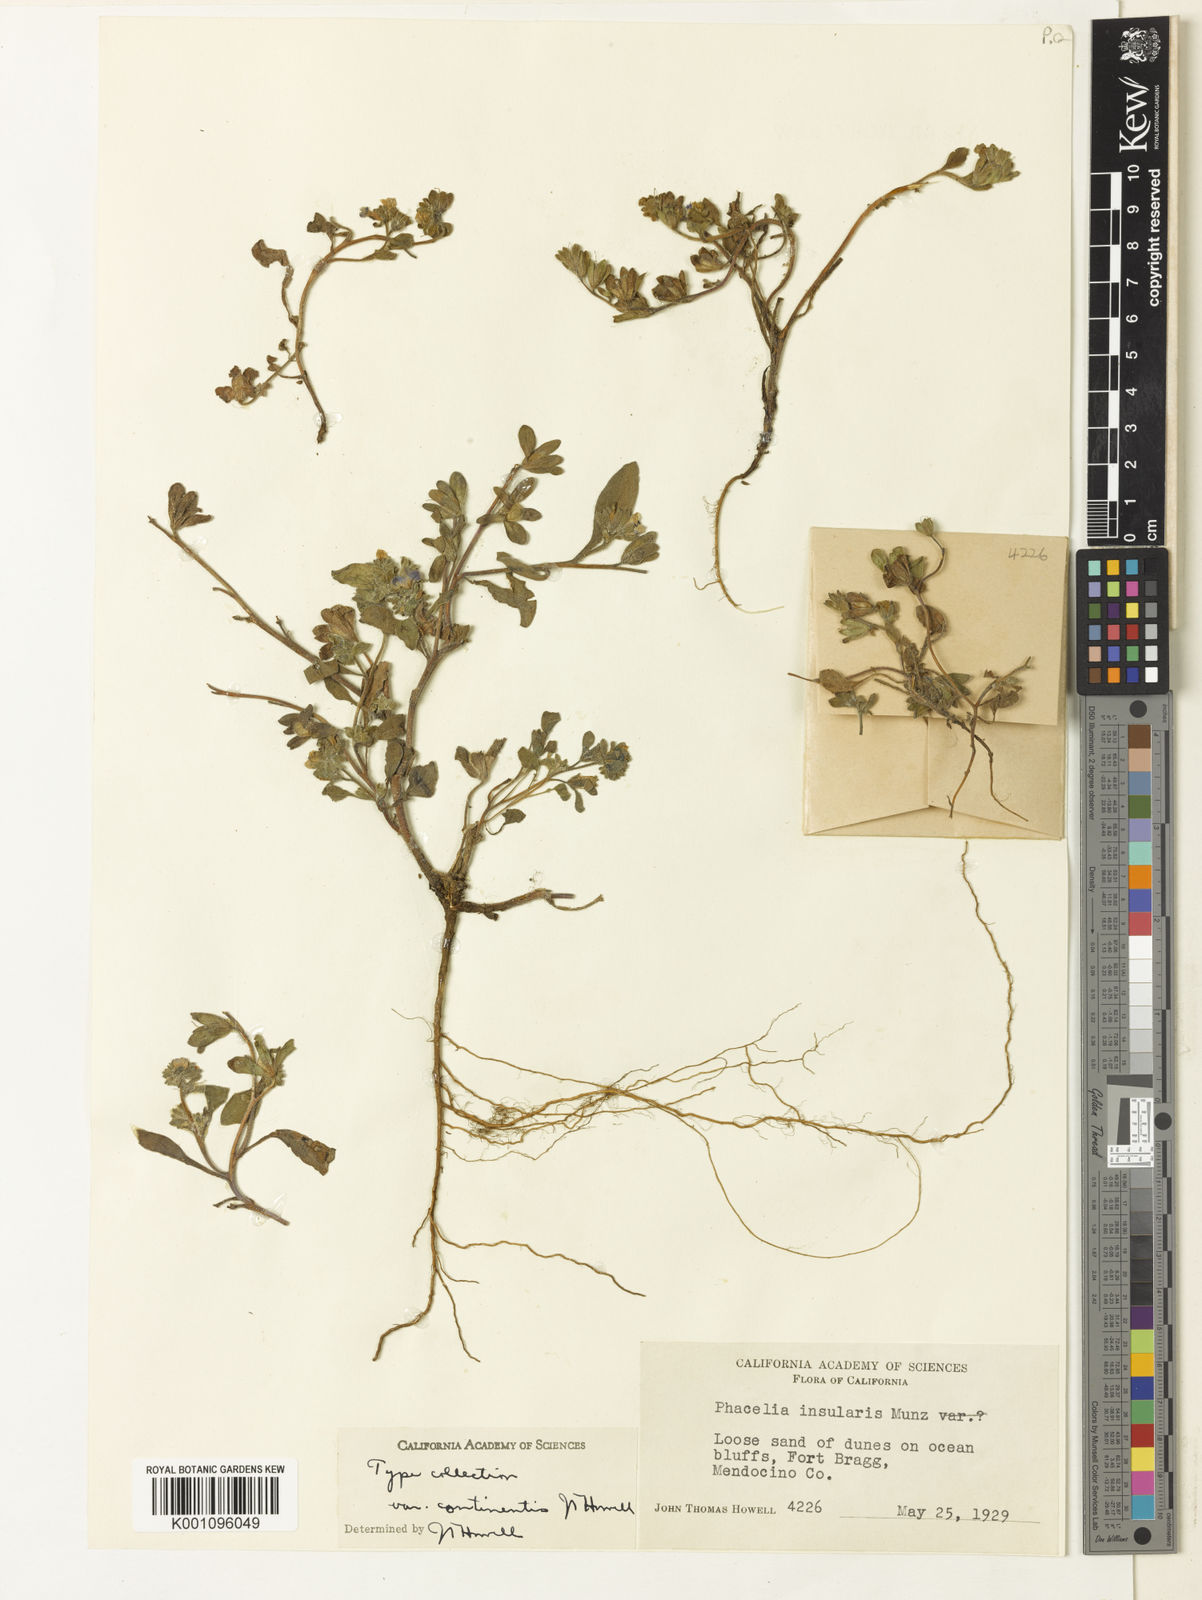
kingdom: Plantae
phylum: Tracheophyta
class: Magnoliopsida
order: Boraginales
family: Hydrophyllaceae
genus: Phacelia
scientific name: Phacelia
